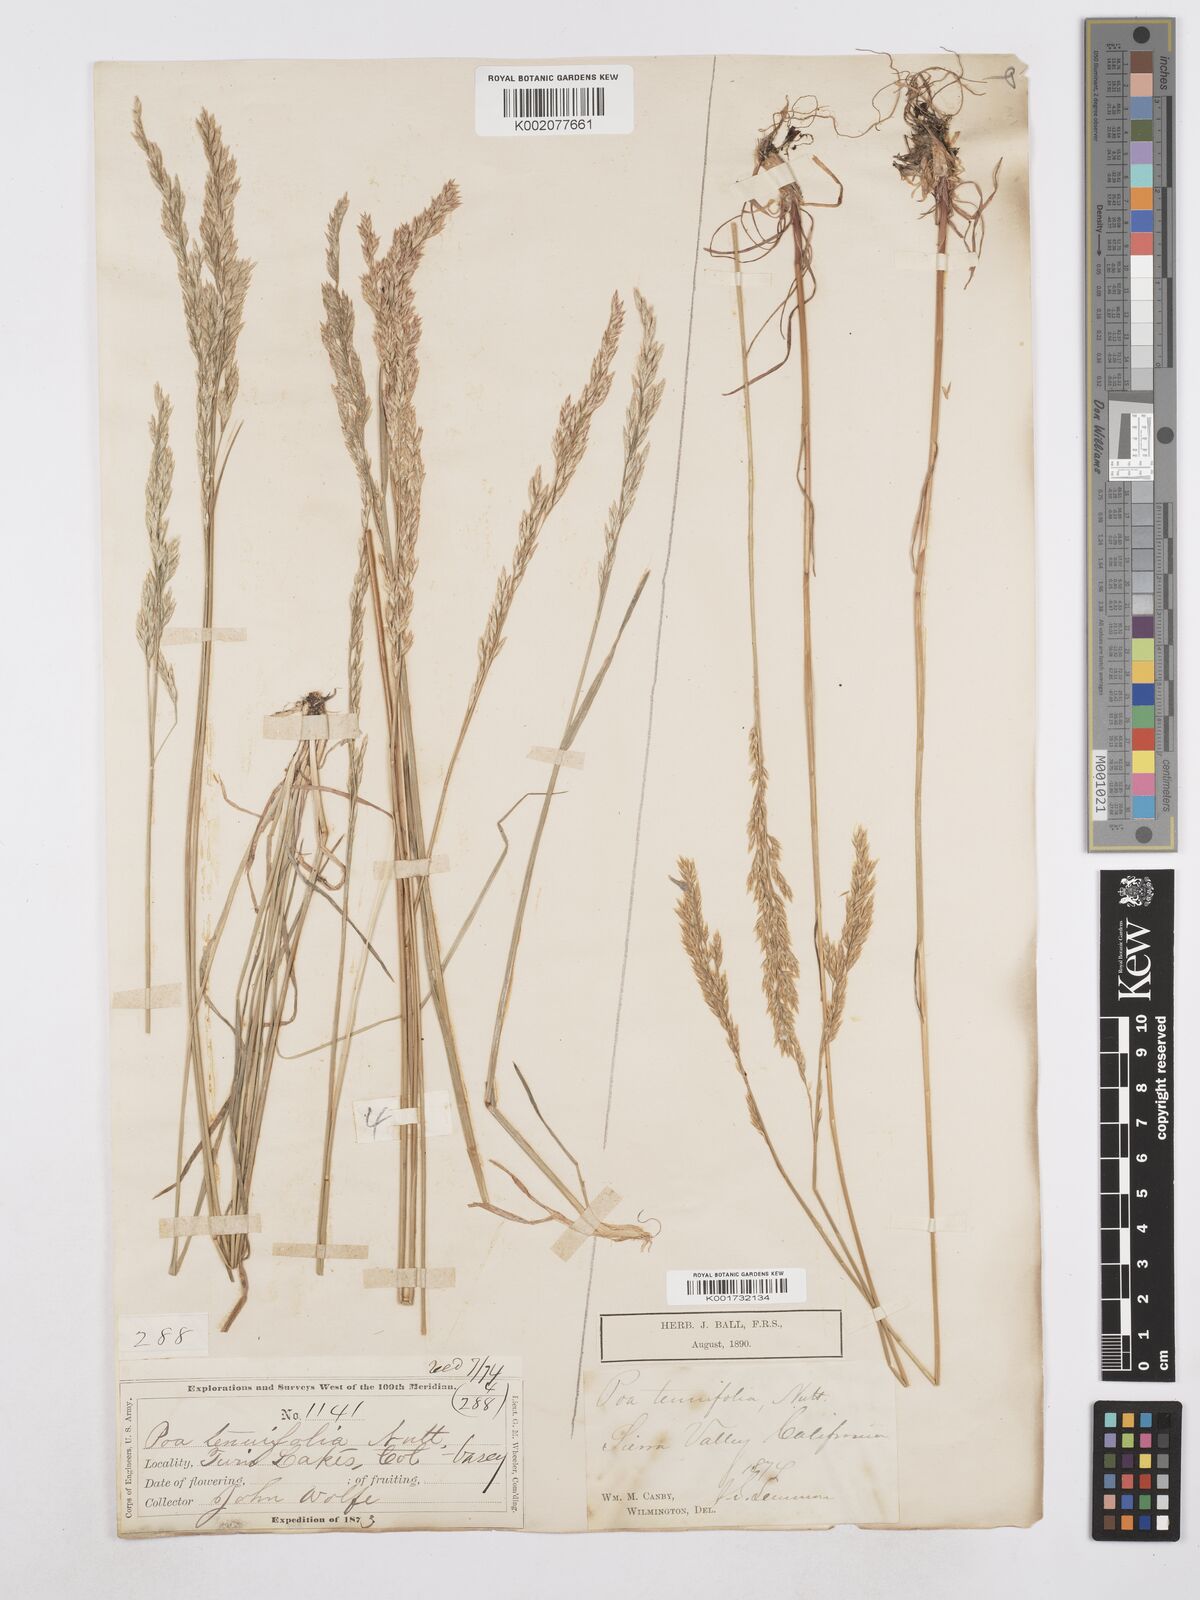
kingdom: Plantae
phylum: Tracheophyta
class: Liliopsida
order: Poales
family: Poaceae
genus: Poa
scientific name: Poa secunda
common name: Sandberg bluegrass
